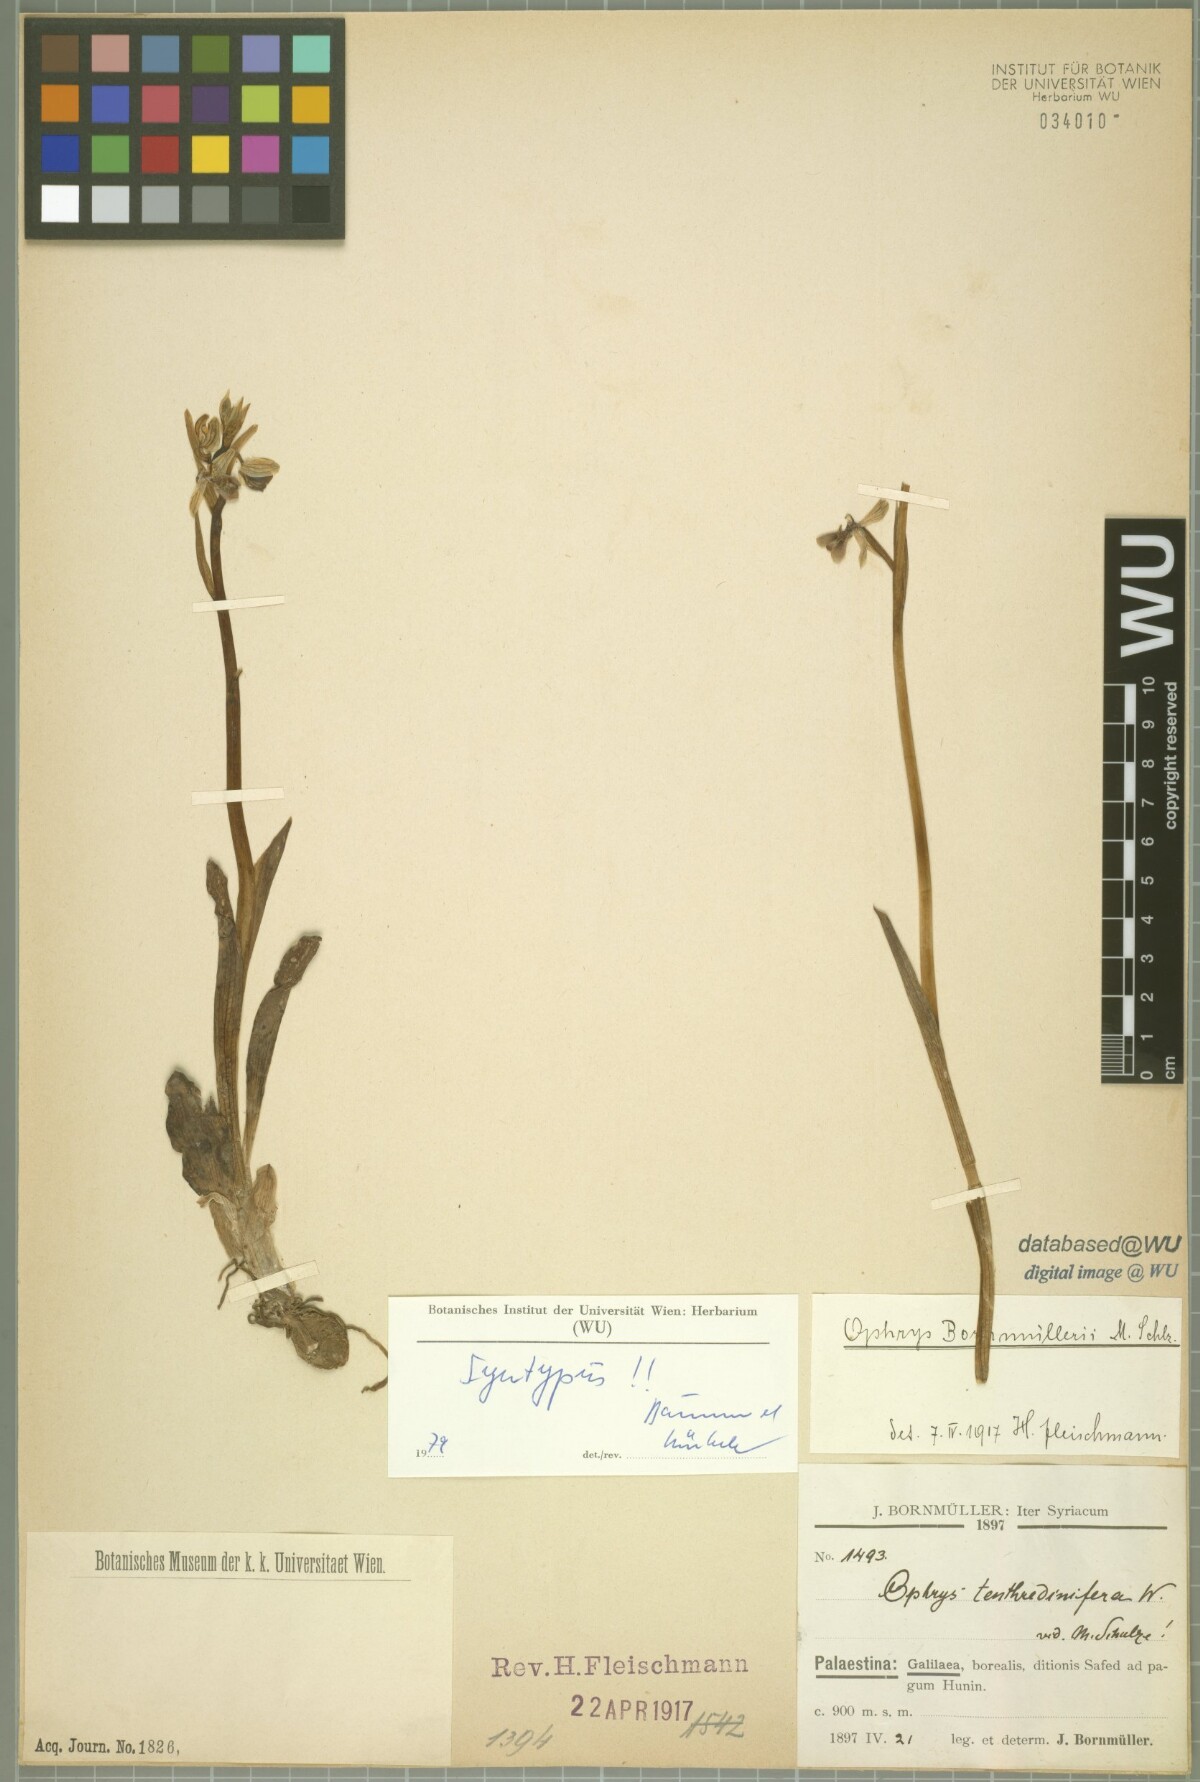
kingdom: Plantae
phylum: Tracheophyta
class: Liliopsida
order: Asparagales
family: Orchidaceae
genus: Ophrys
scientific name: Ophrys bornmuelleri
